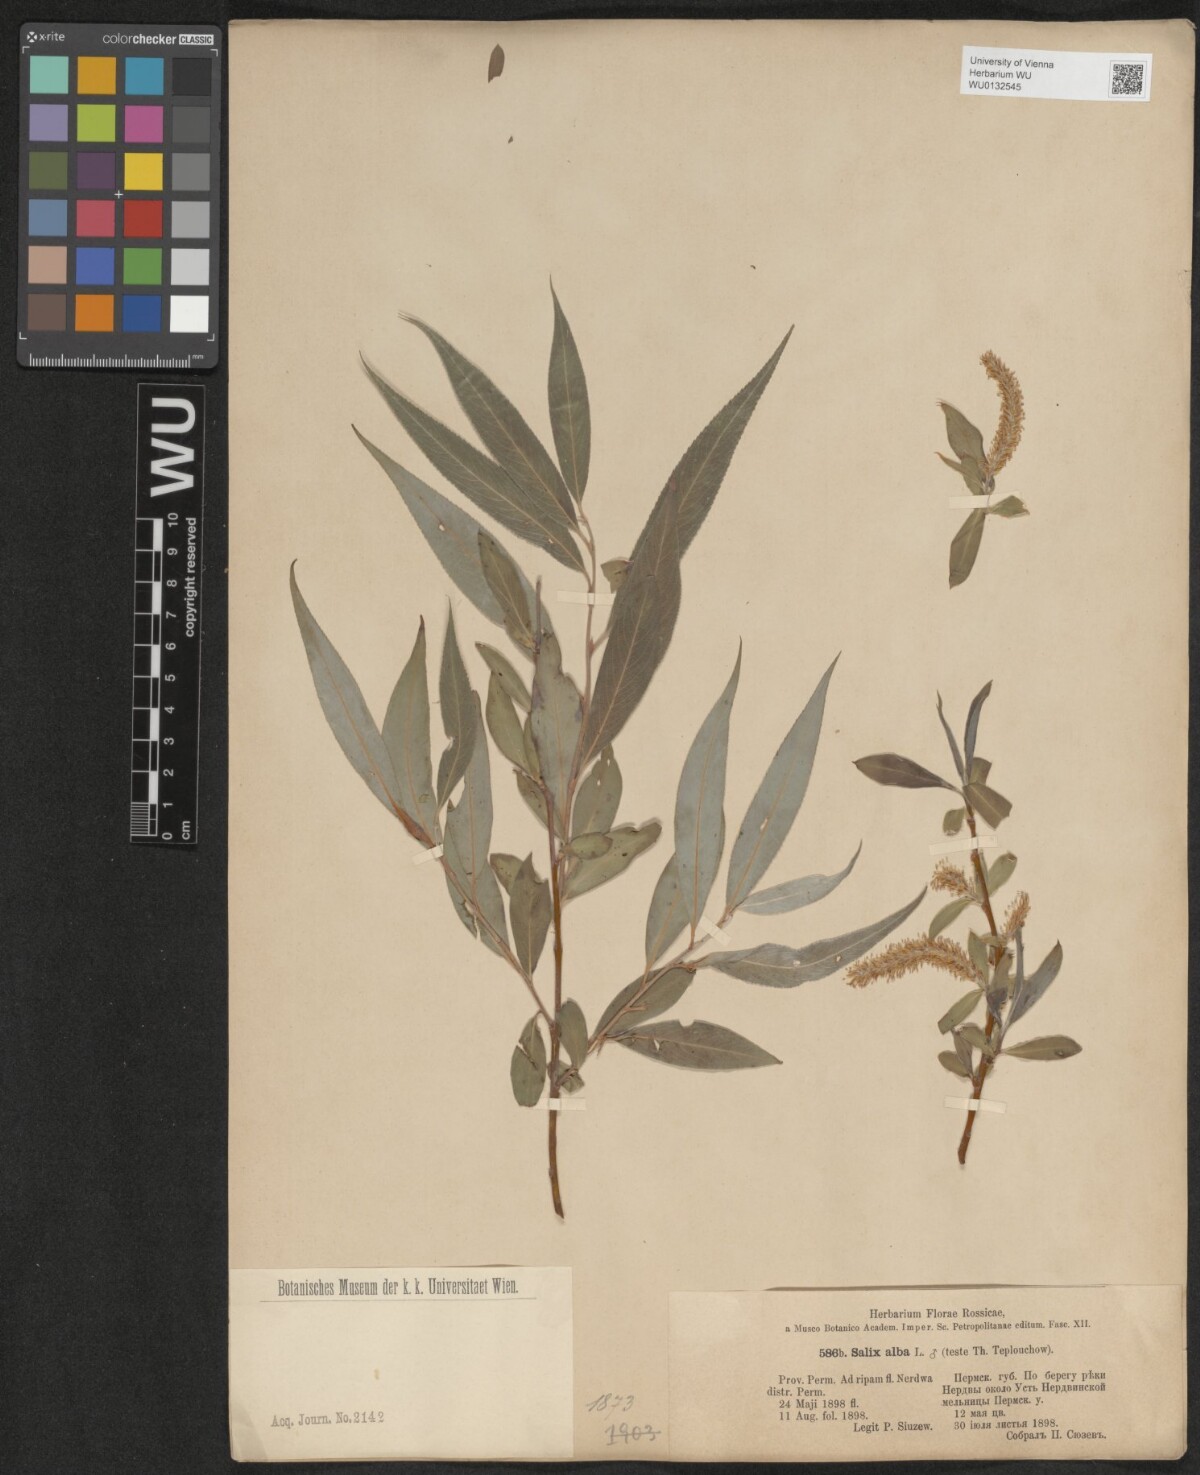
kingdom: Plantae
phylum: Tracheophyta
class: Magnoliopsida
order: Malpighiales
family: Salicaceae
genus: Salix
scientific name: Salix alba
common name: White willow
